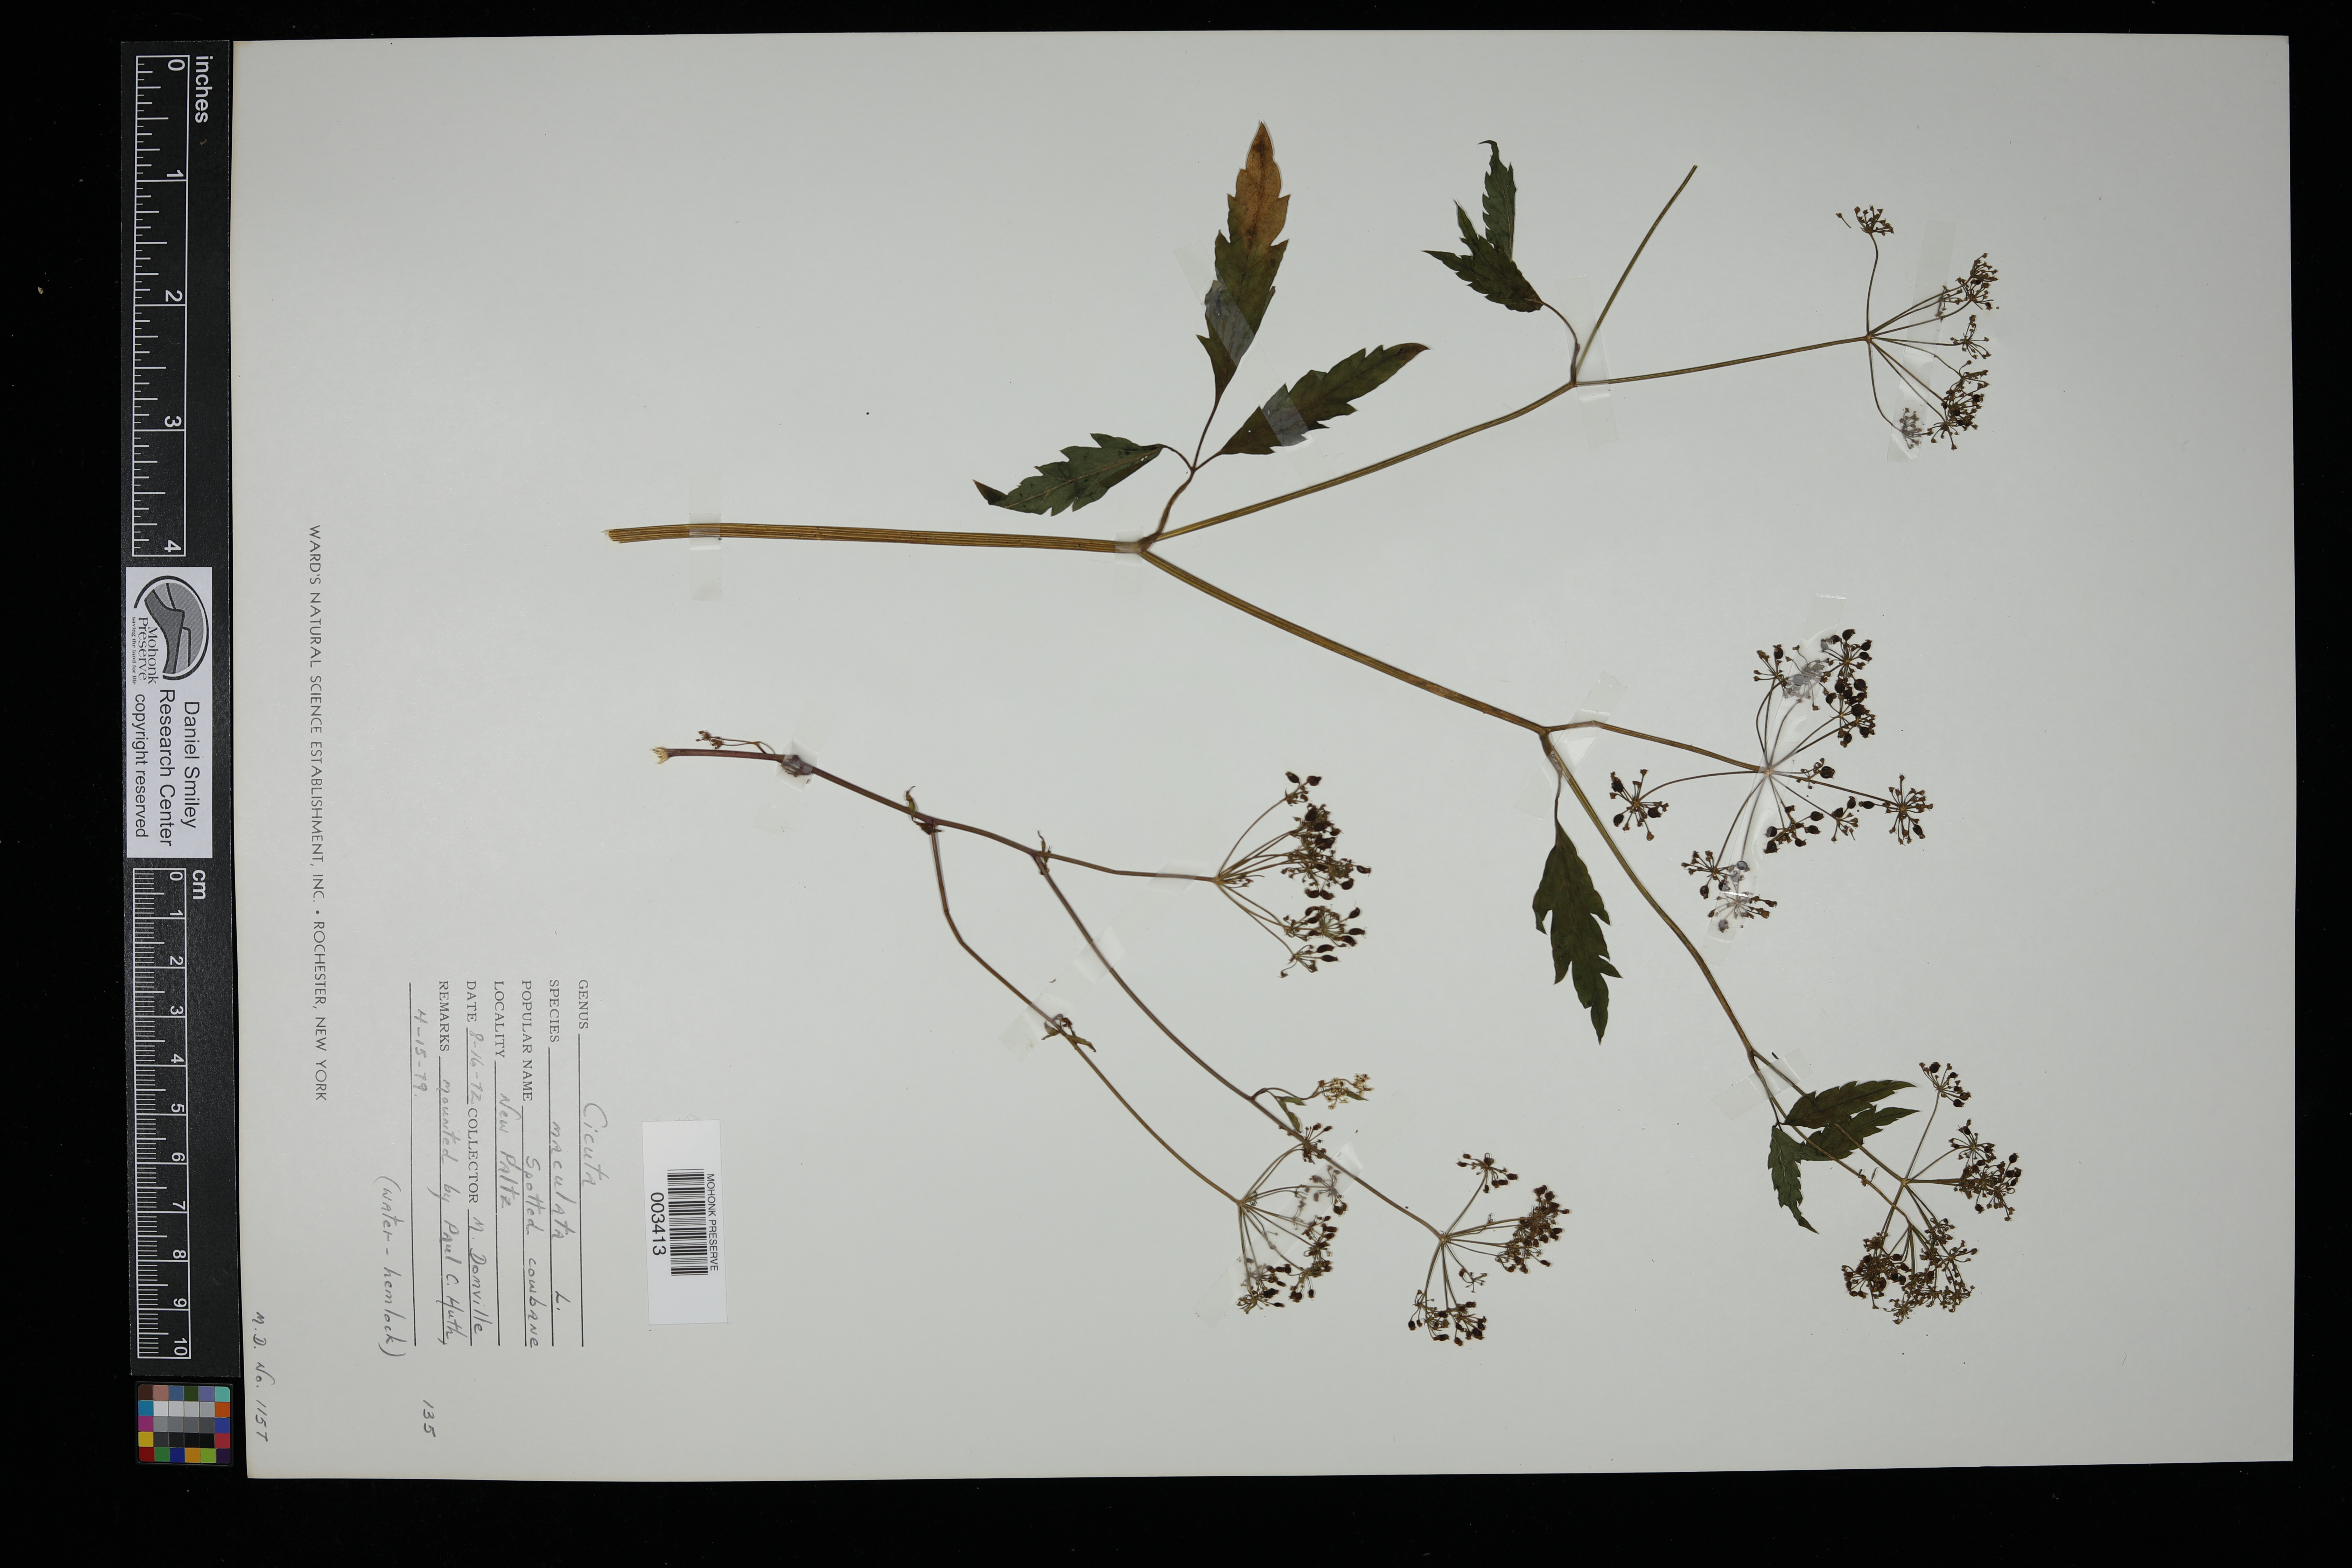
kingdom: Plantae
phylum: Tracheophyta
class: Magnoliopsida
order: Apiales
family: Apiaceae
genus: Cicuta
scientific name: Cicuta maculata
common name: Spotted cowbane
